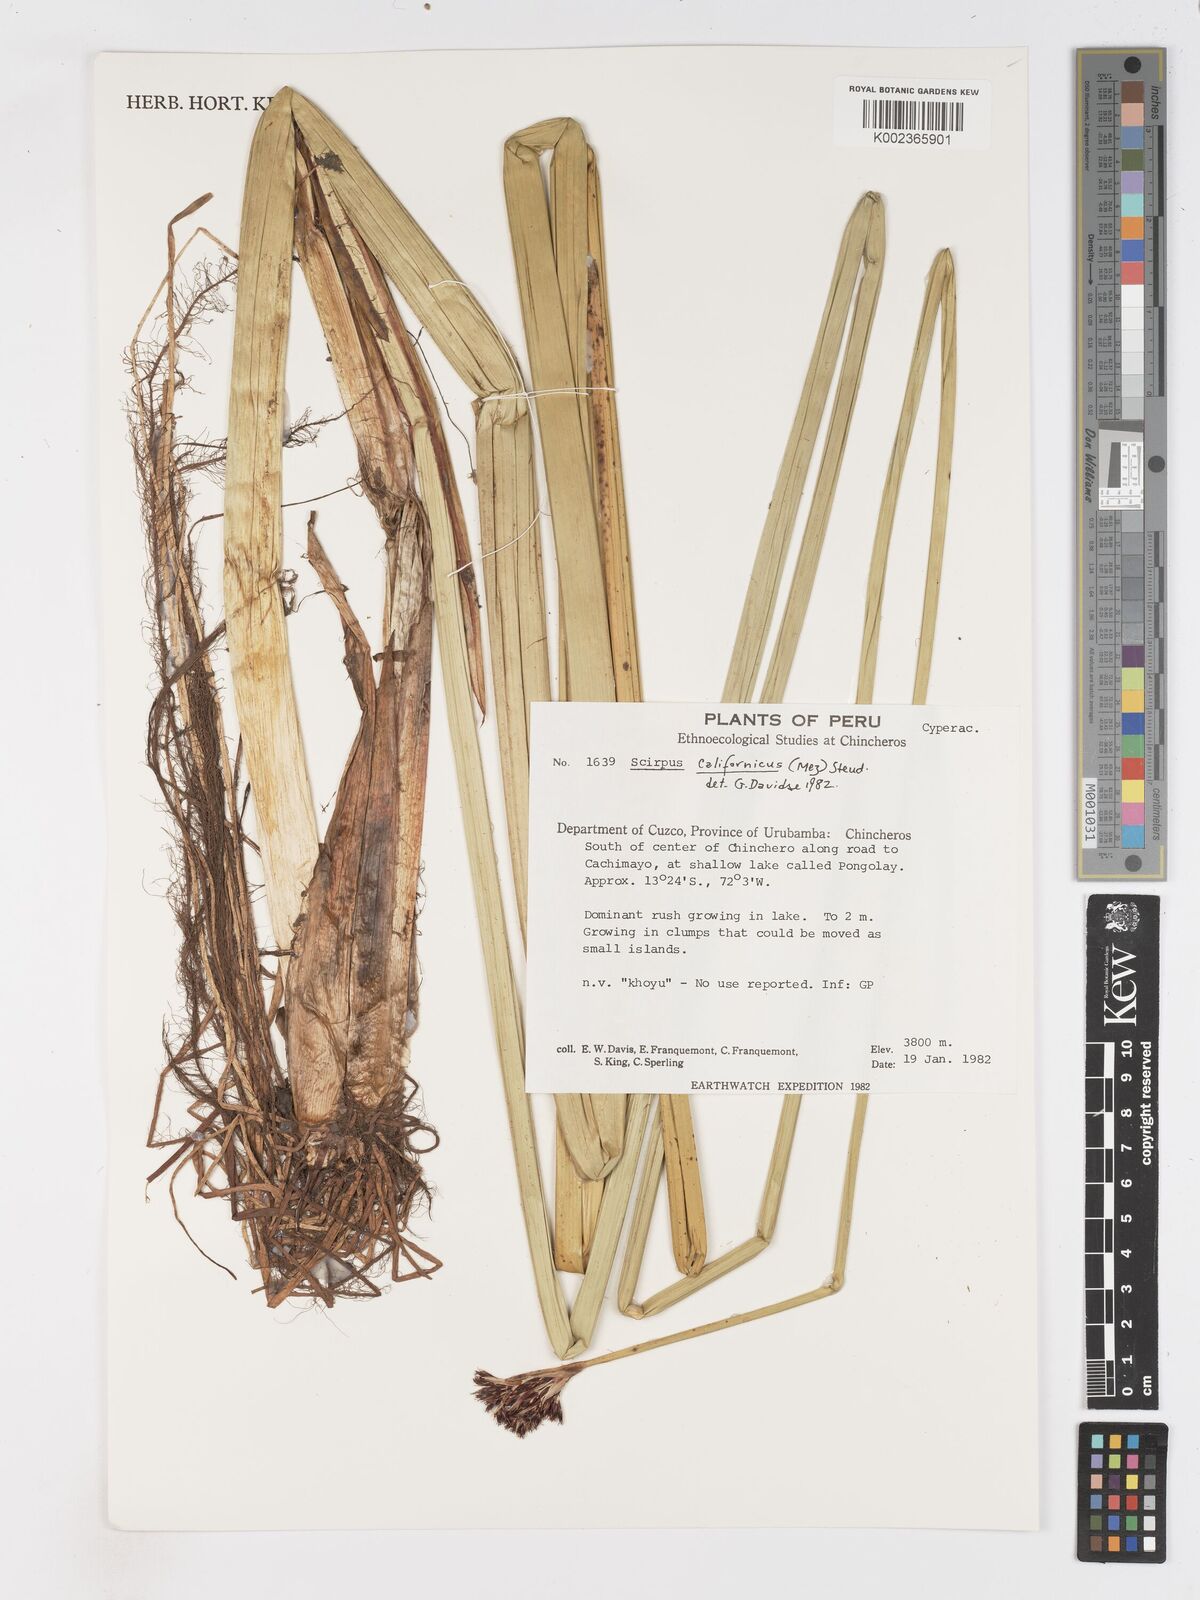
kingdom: Plantae
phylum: Tracheophyta
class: Liliopsida
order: Poales
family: Cyperaceae
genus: Schoenoplectus
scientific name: Schoenoplectus californicus
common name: California bulrush
